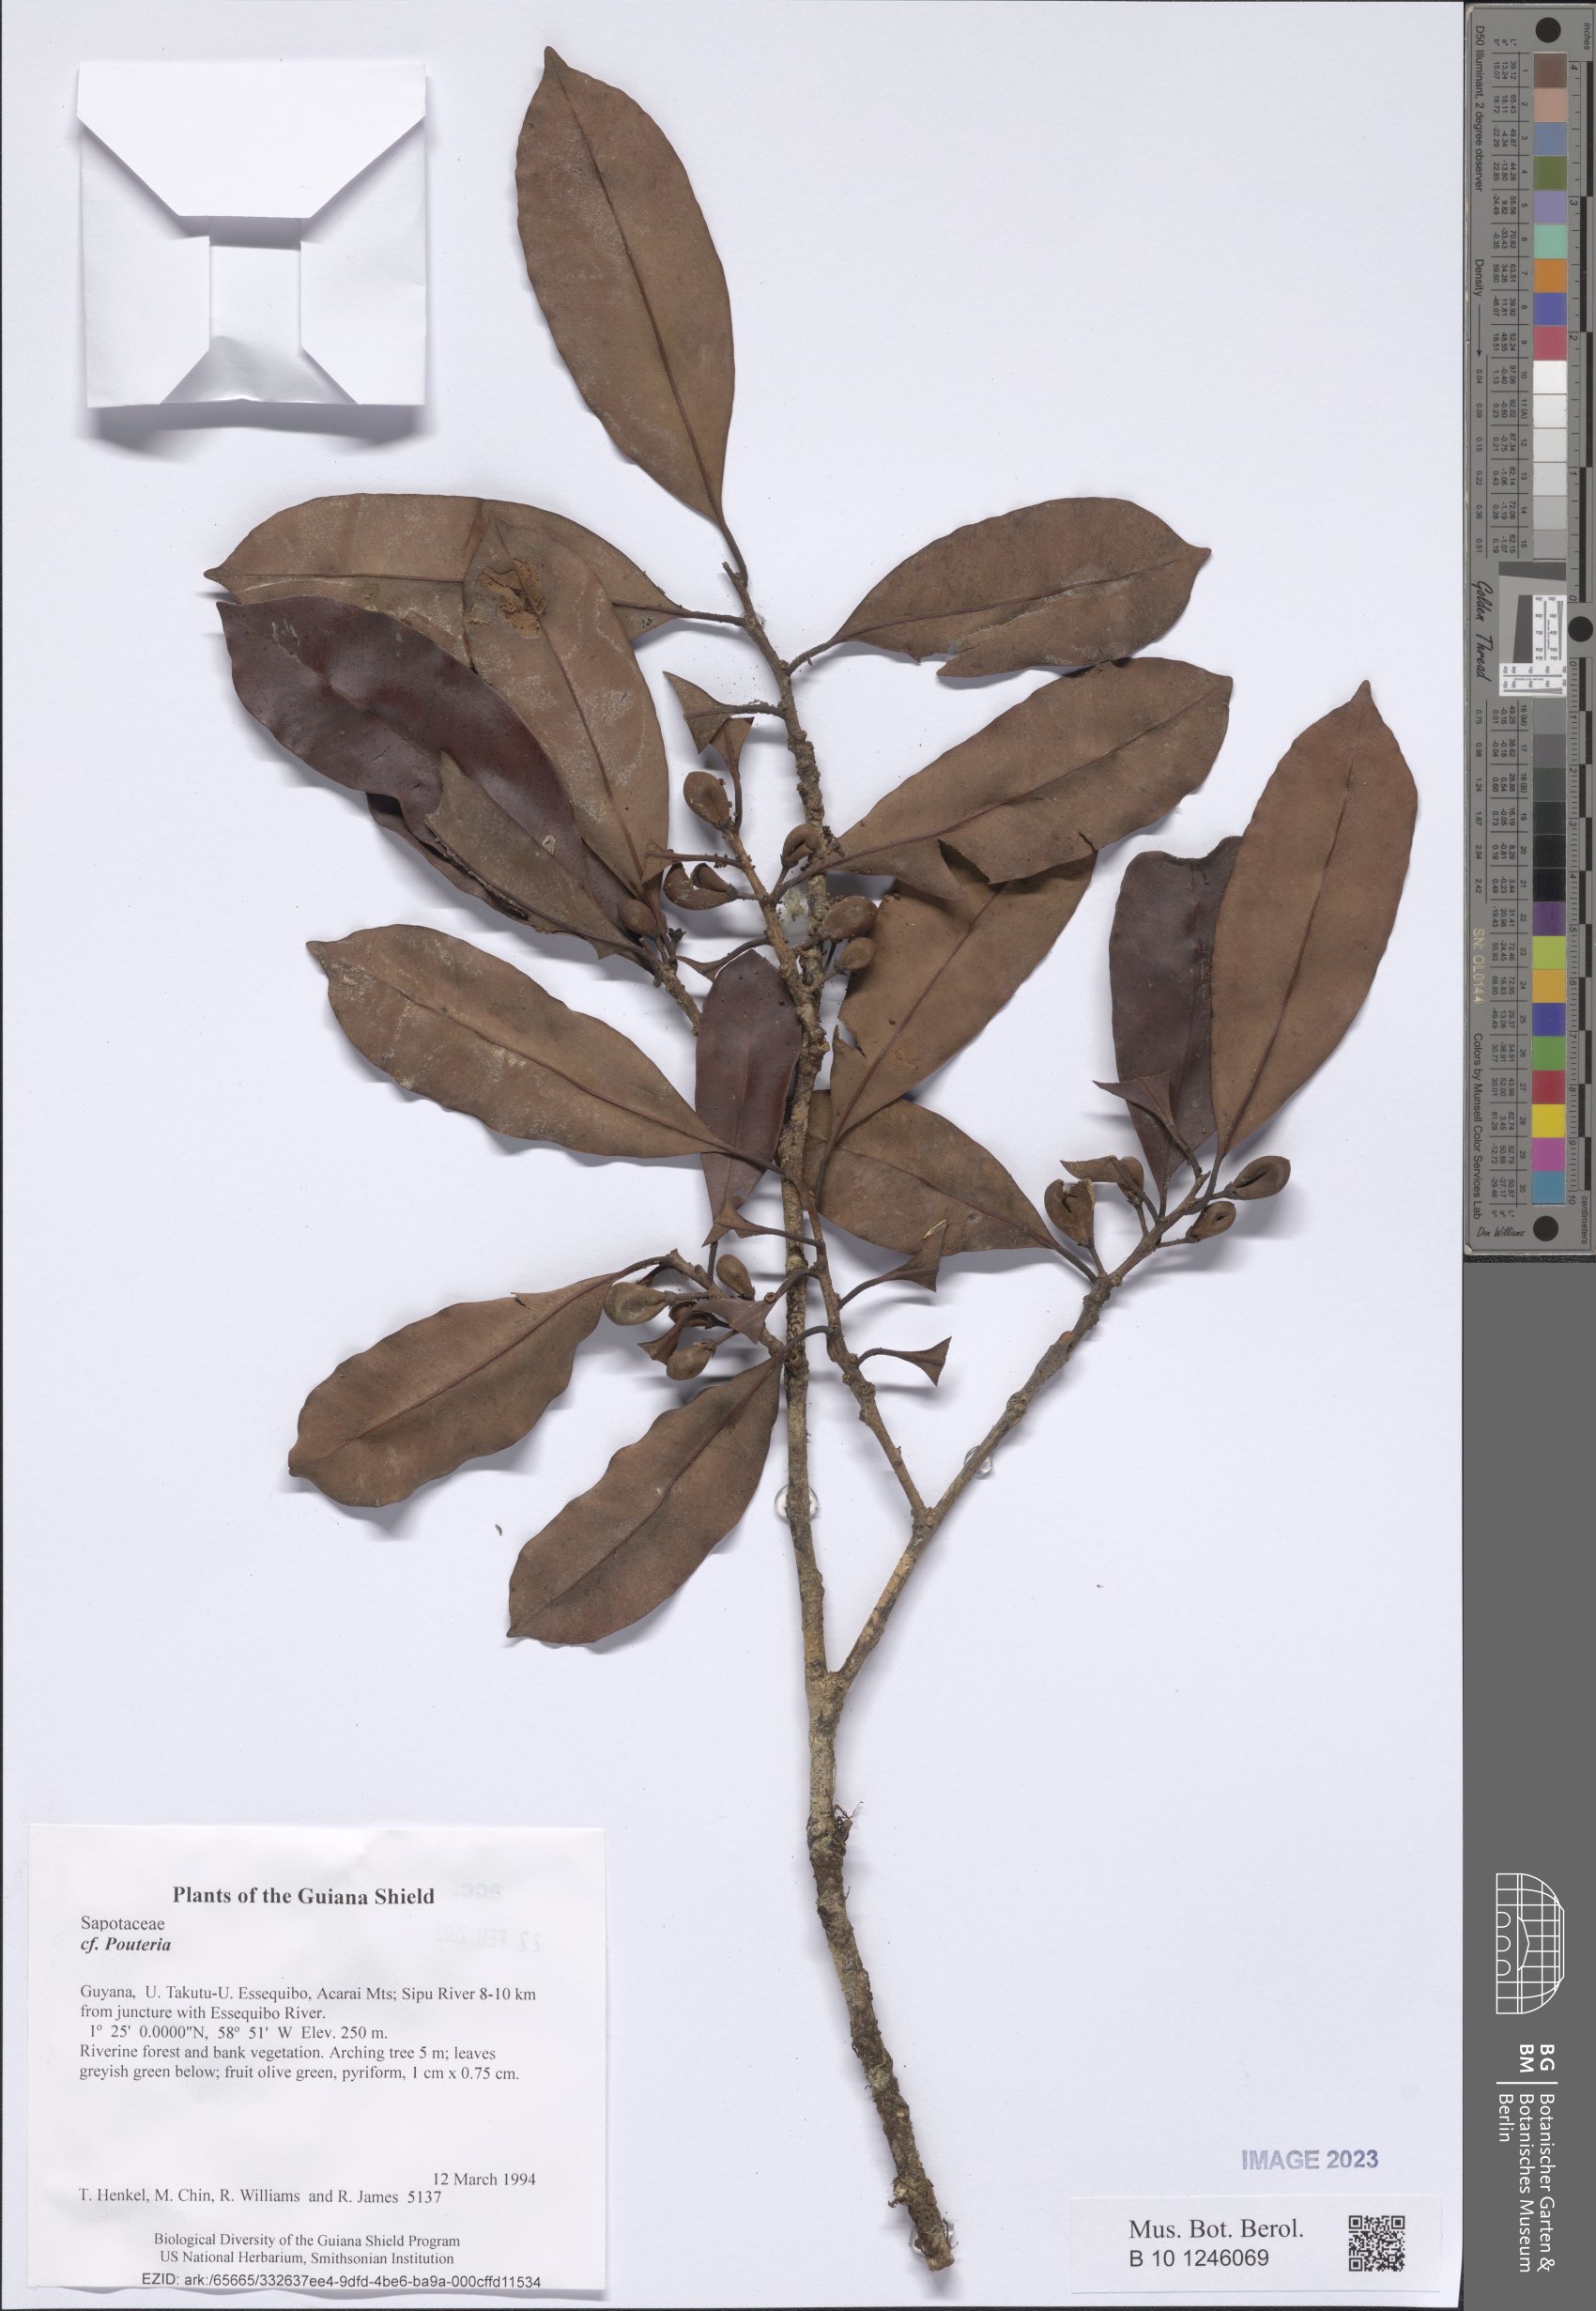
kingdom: Plantae
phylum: Tracheophyta
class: Magnoliopsida
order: Ericales
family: Sapotaceae
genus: Pouteria
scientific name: Pouteria
